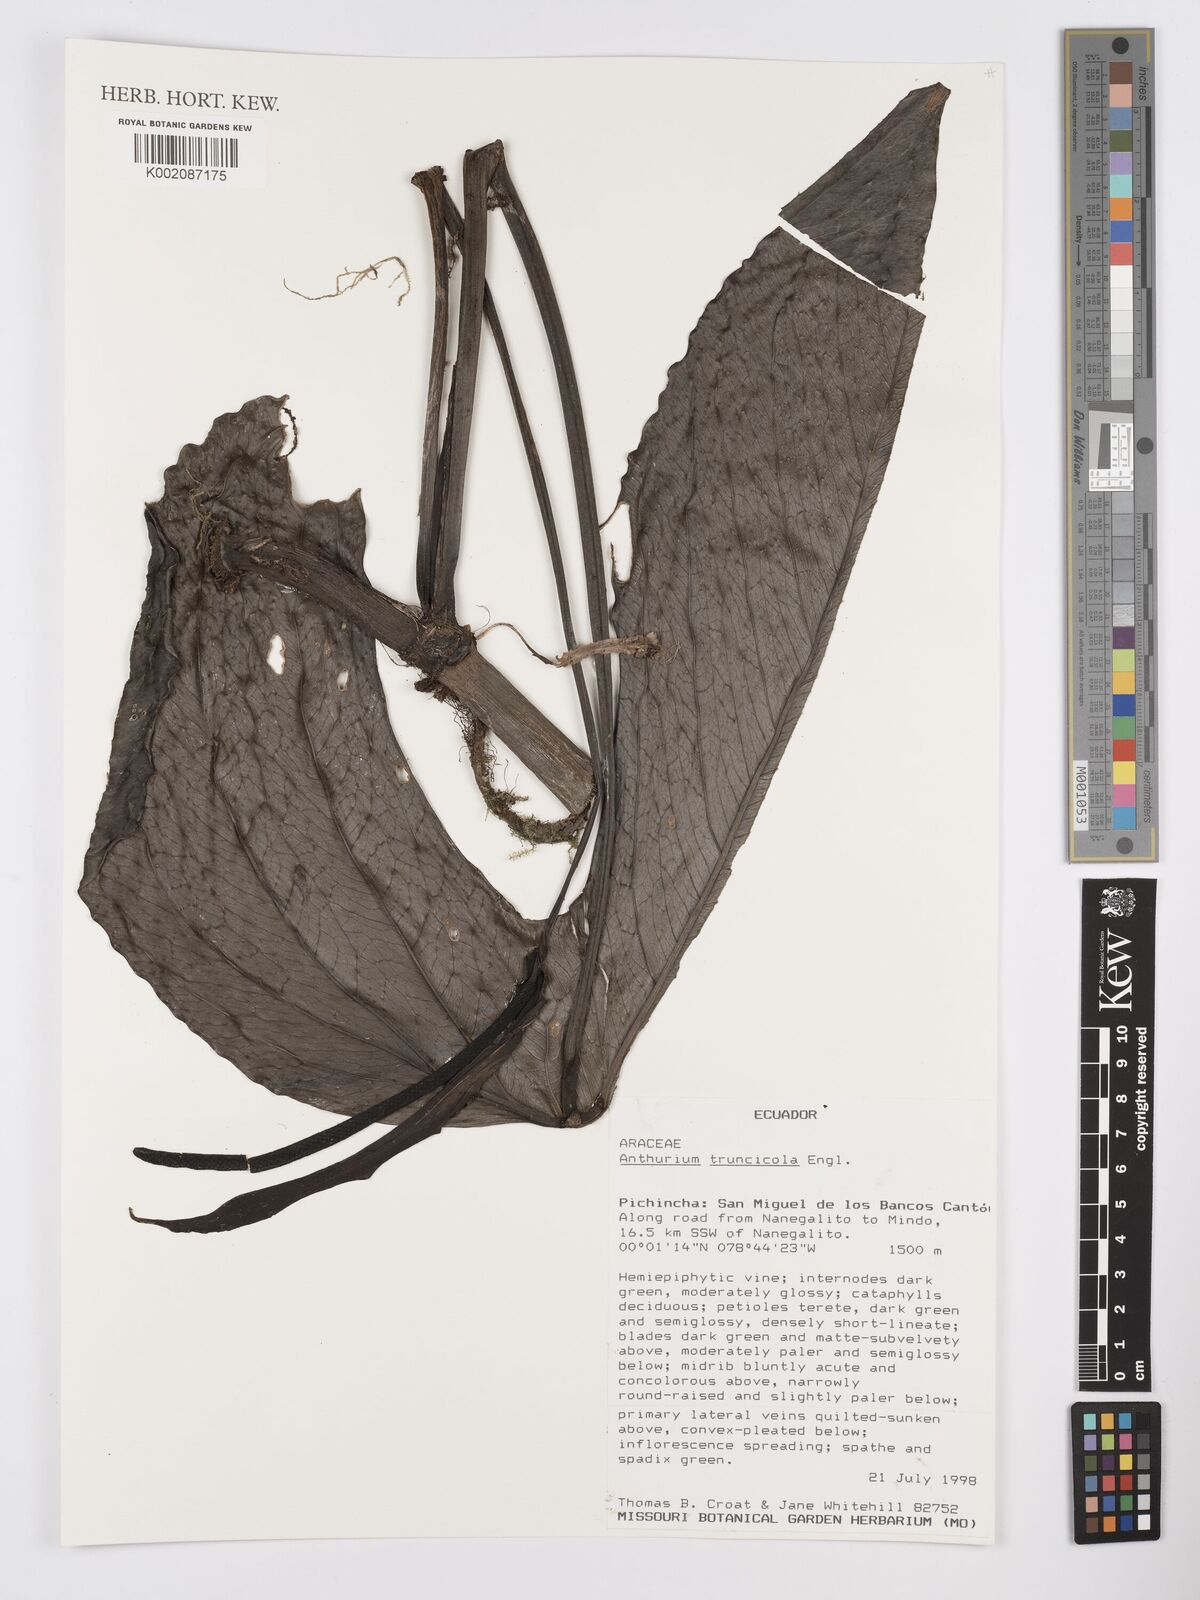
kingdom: Plantae
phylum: Tracheophyta
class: Liliopsida
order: Alismatales
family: Araceae
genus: Anthurium
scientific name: Anthurium truncicola
